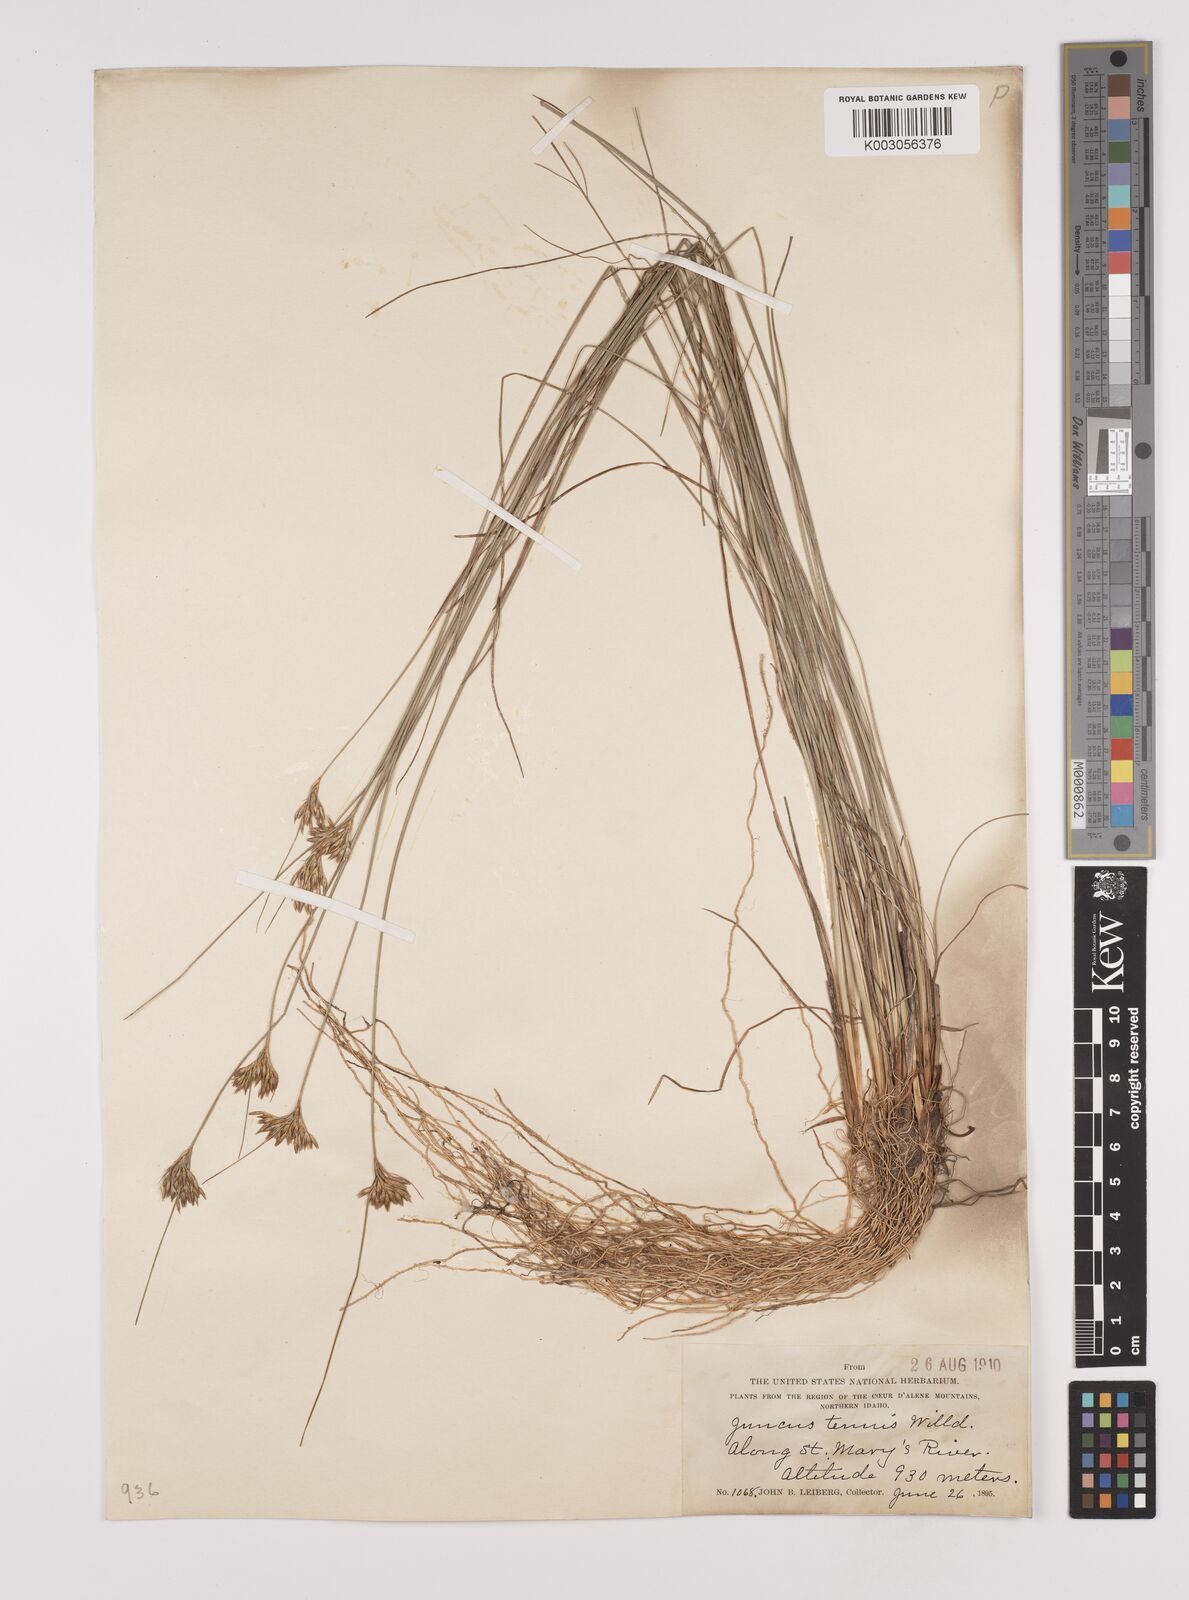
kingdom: Plantae
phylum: Tracheophyta
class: Liliopsida
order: Poales
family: Juncaceae
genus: Juncus
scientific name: Juncus tenuis
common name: Slender rush
